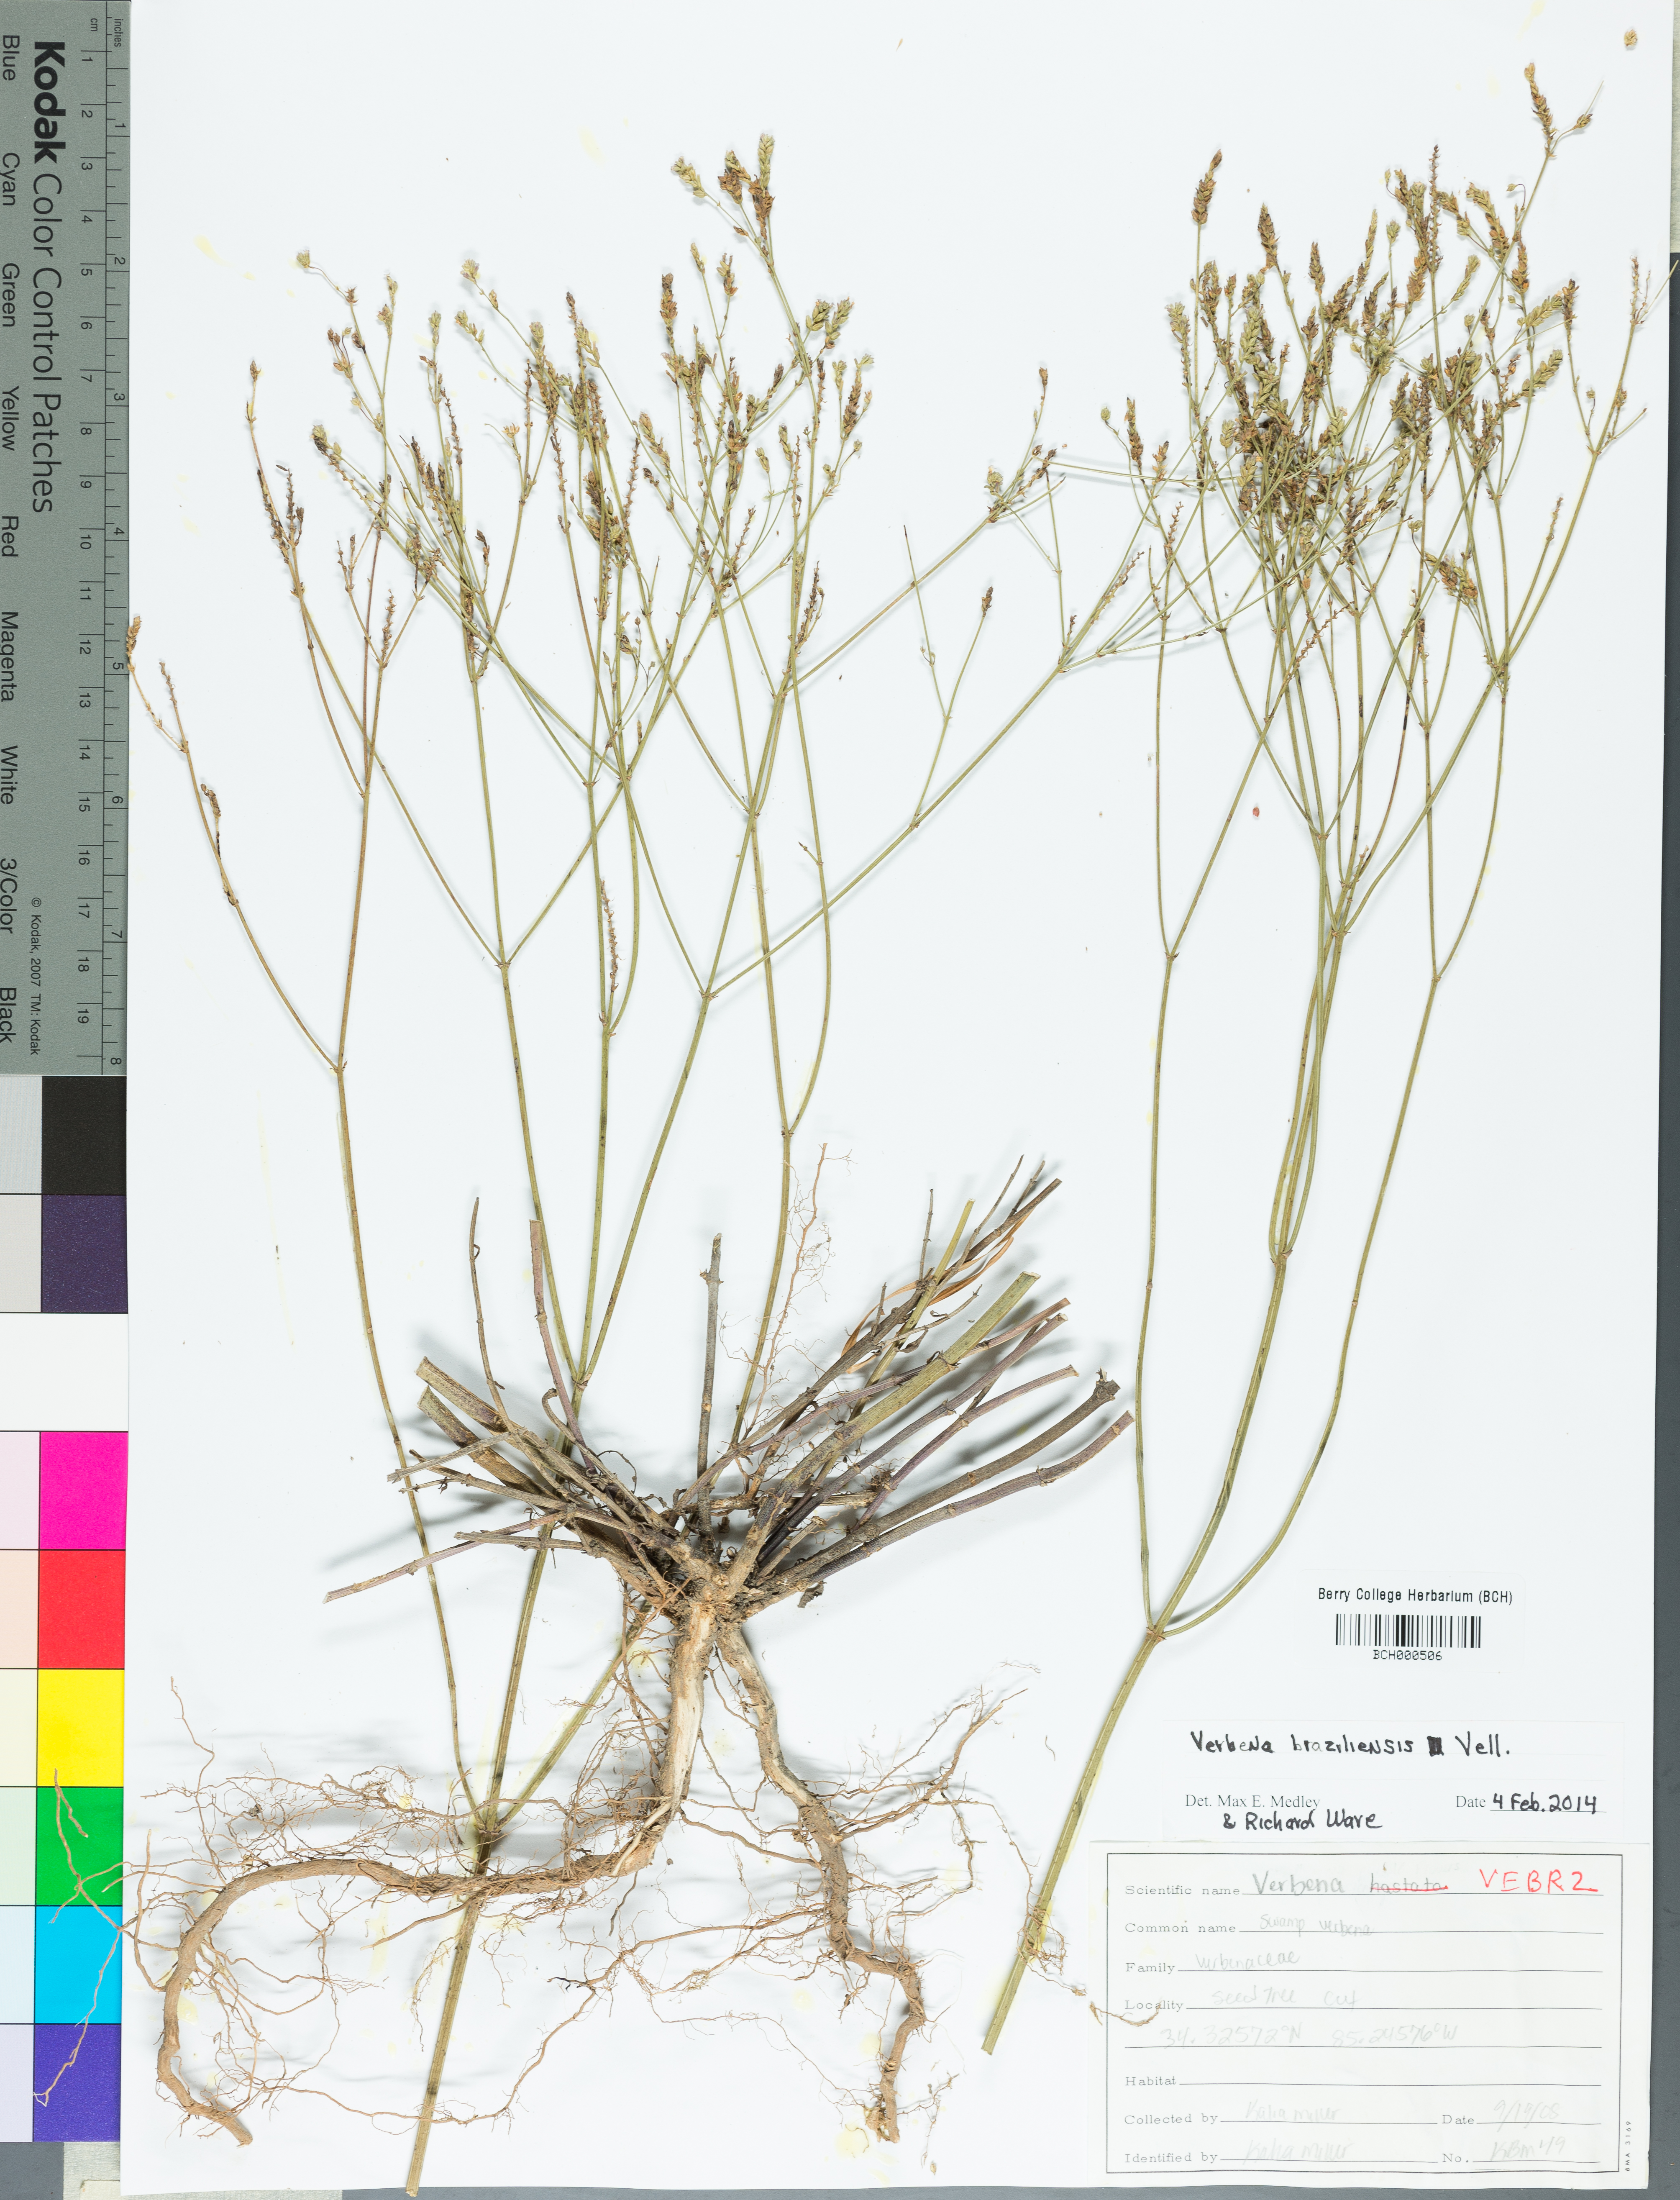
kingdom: Plantae
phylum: Tracheophyta
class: Magnoliopsida
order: Lamiales
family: Verbenaceae
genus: Verbena
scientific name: Verbena brasiliensis
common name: Brazilian vervain
